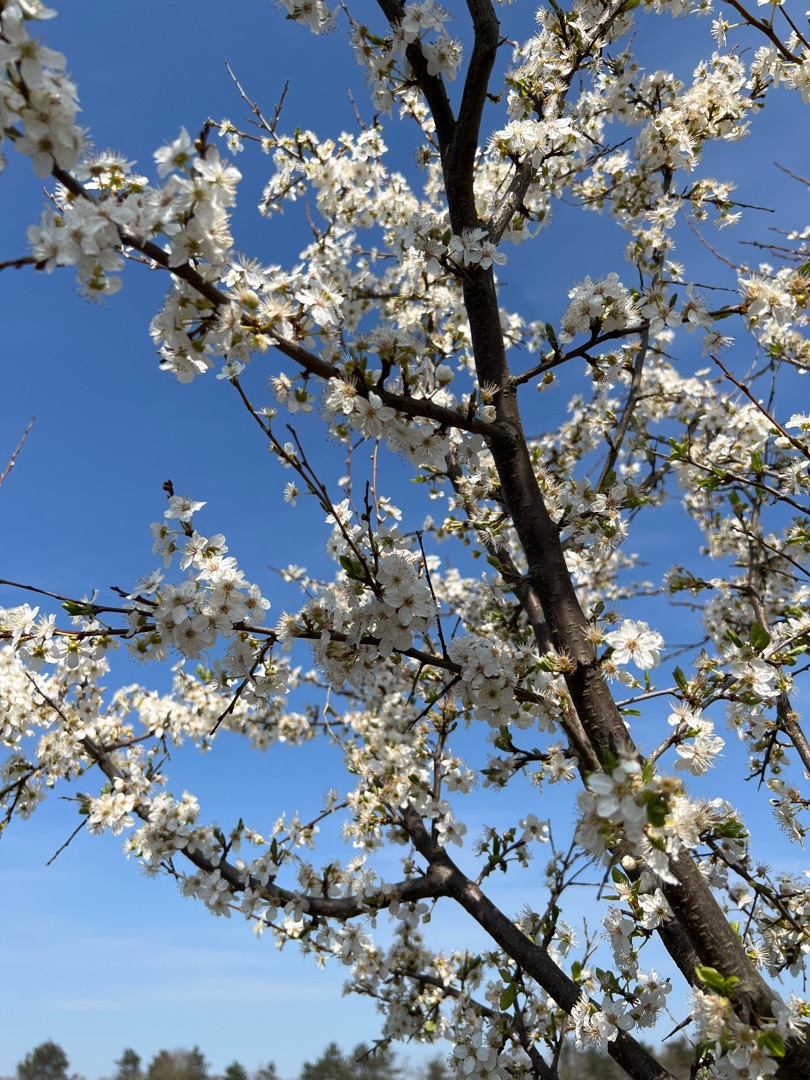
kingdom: Plantae
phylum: Tracheophyta
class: Magnoliopsida
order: Rosales
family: Rosaceae
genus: Prunus
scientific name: Prunus cerasifera
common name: Mirabel
